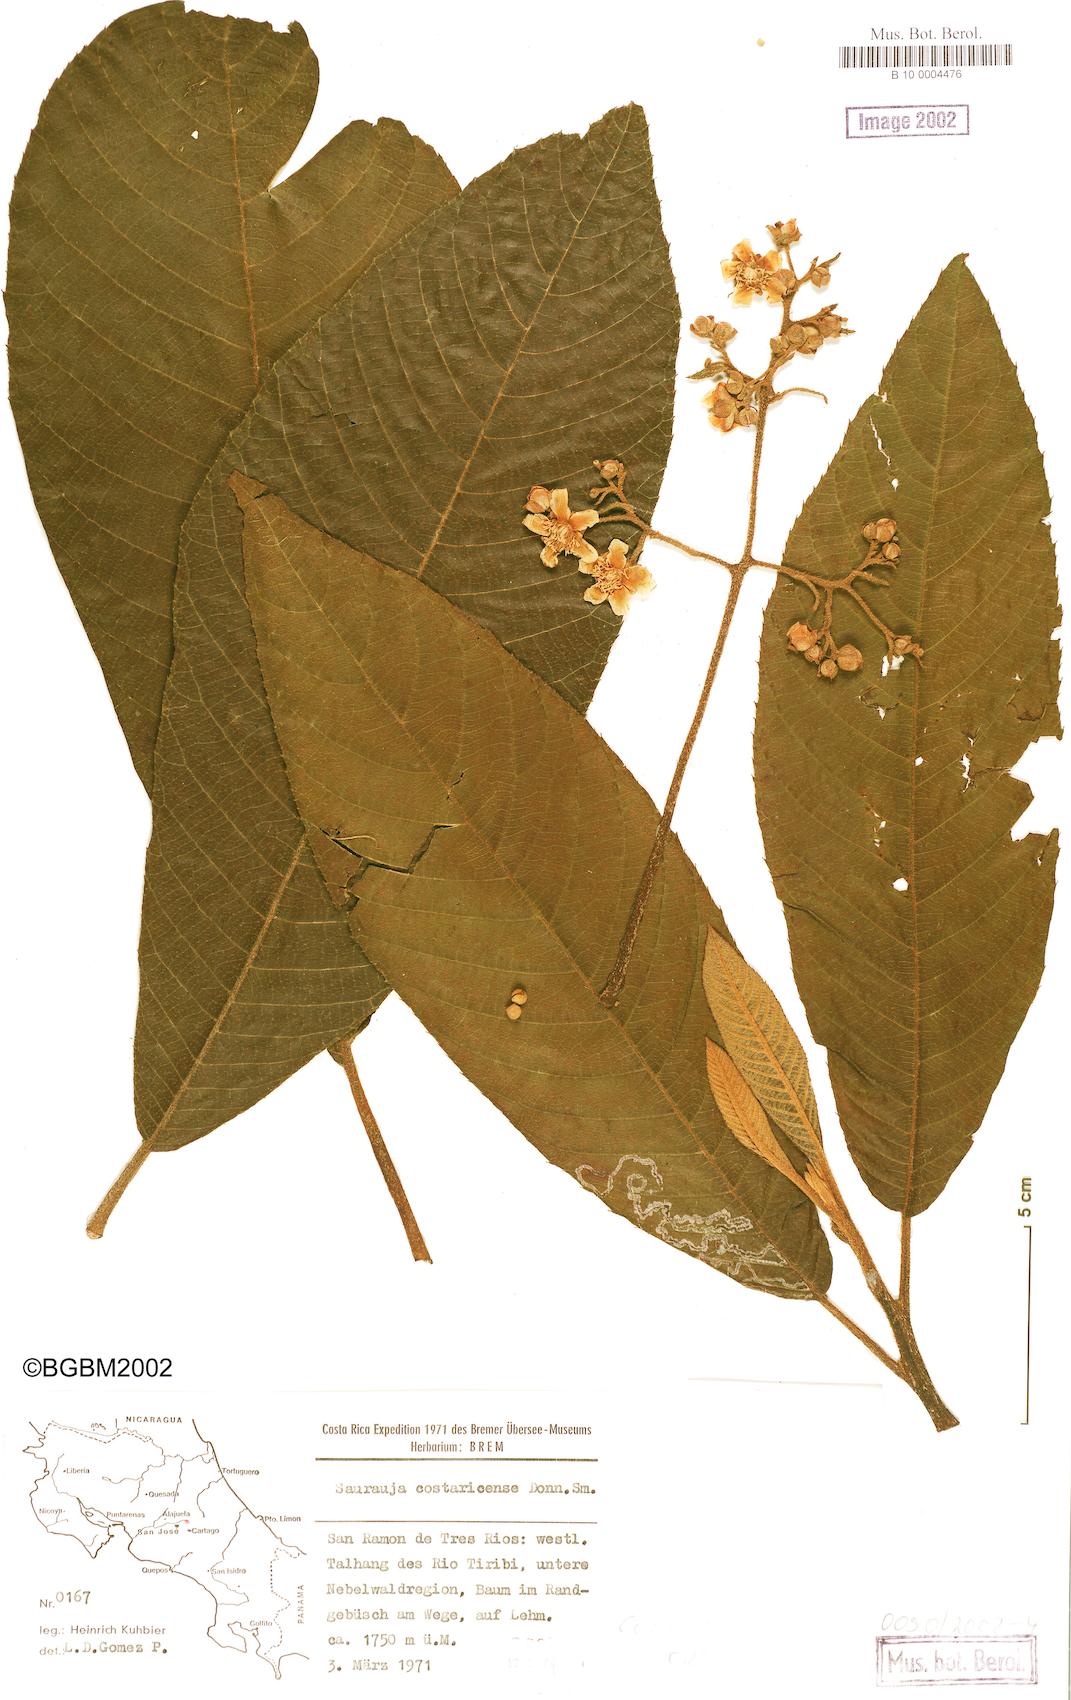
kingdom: Plantae
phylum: Tracheophyta
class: Magnoliopsida
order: Ericales
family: Actinidiaceae
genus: Saurauia
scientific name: Saurauia montana
